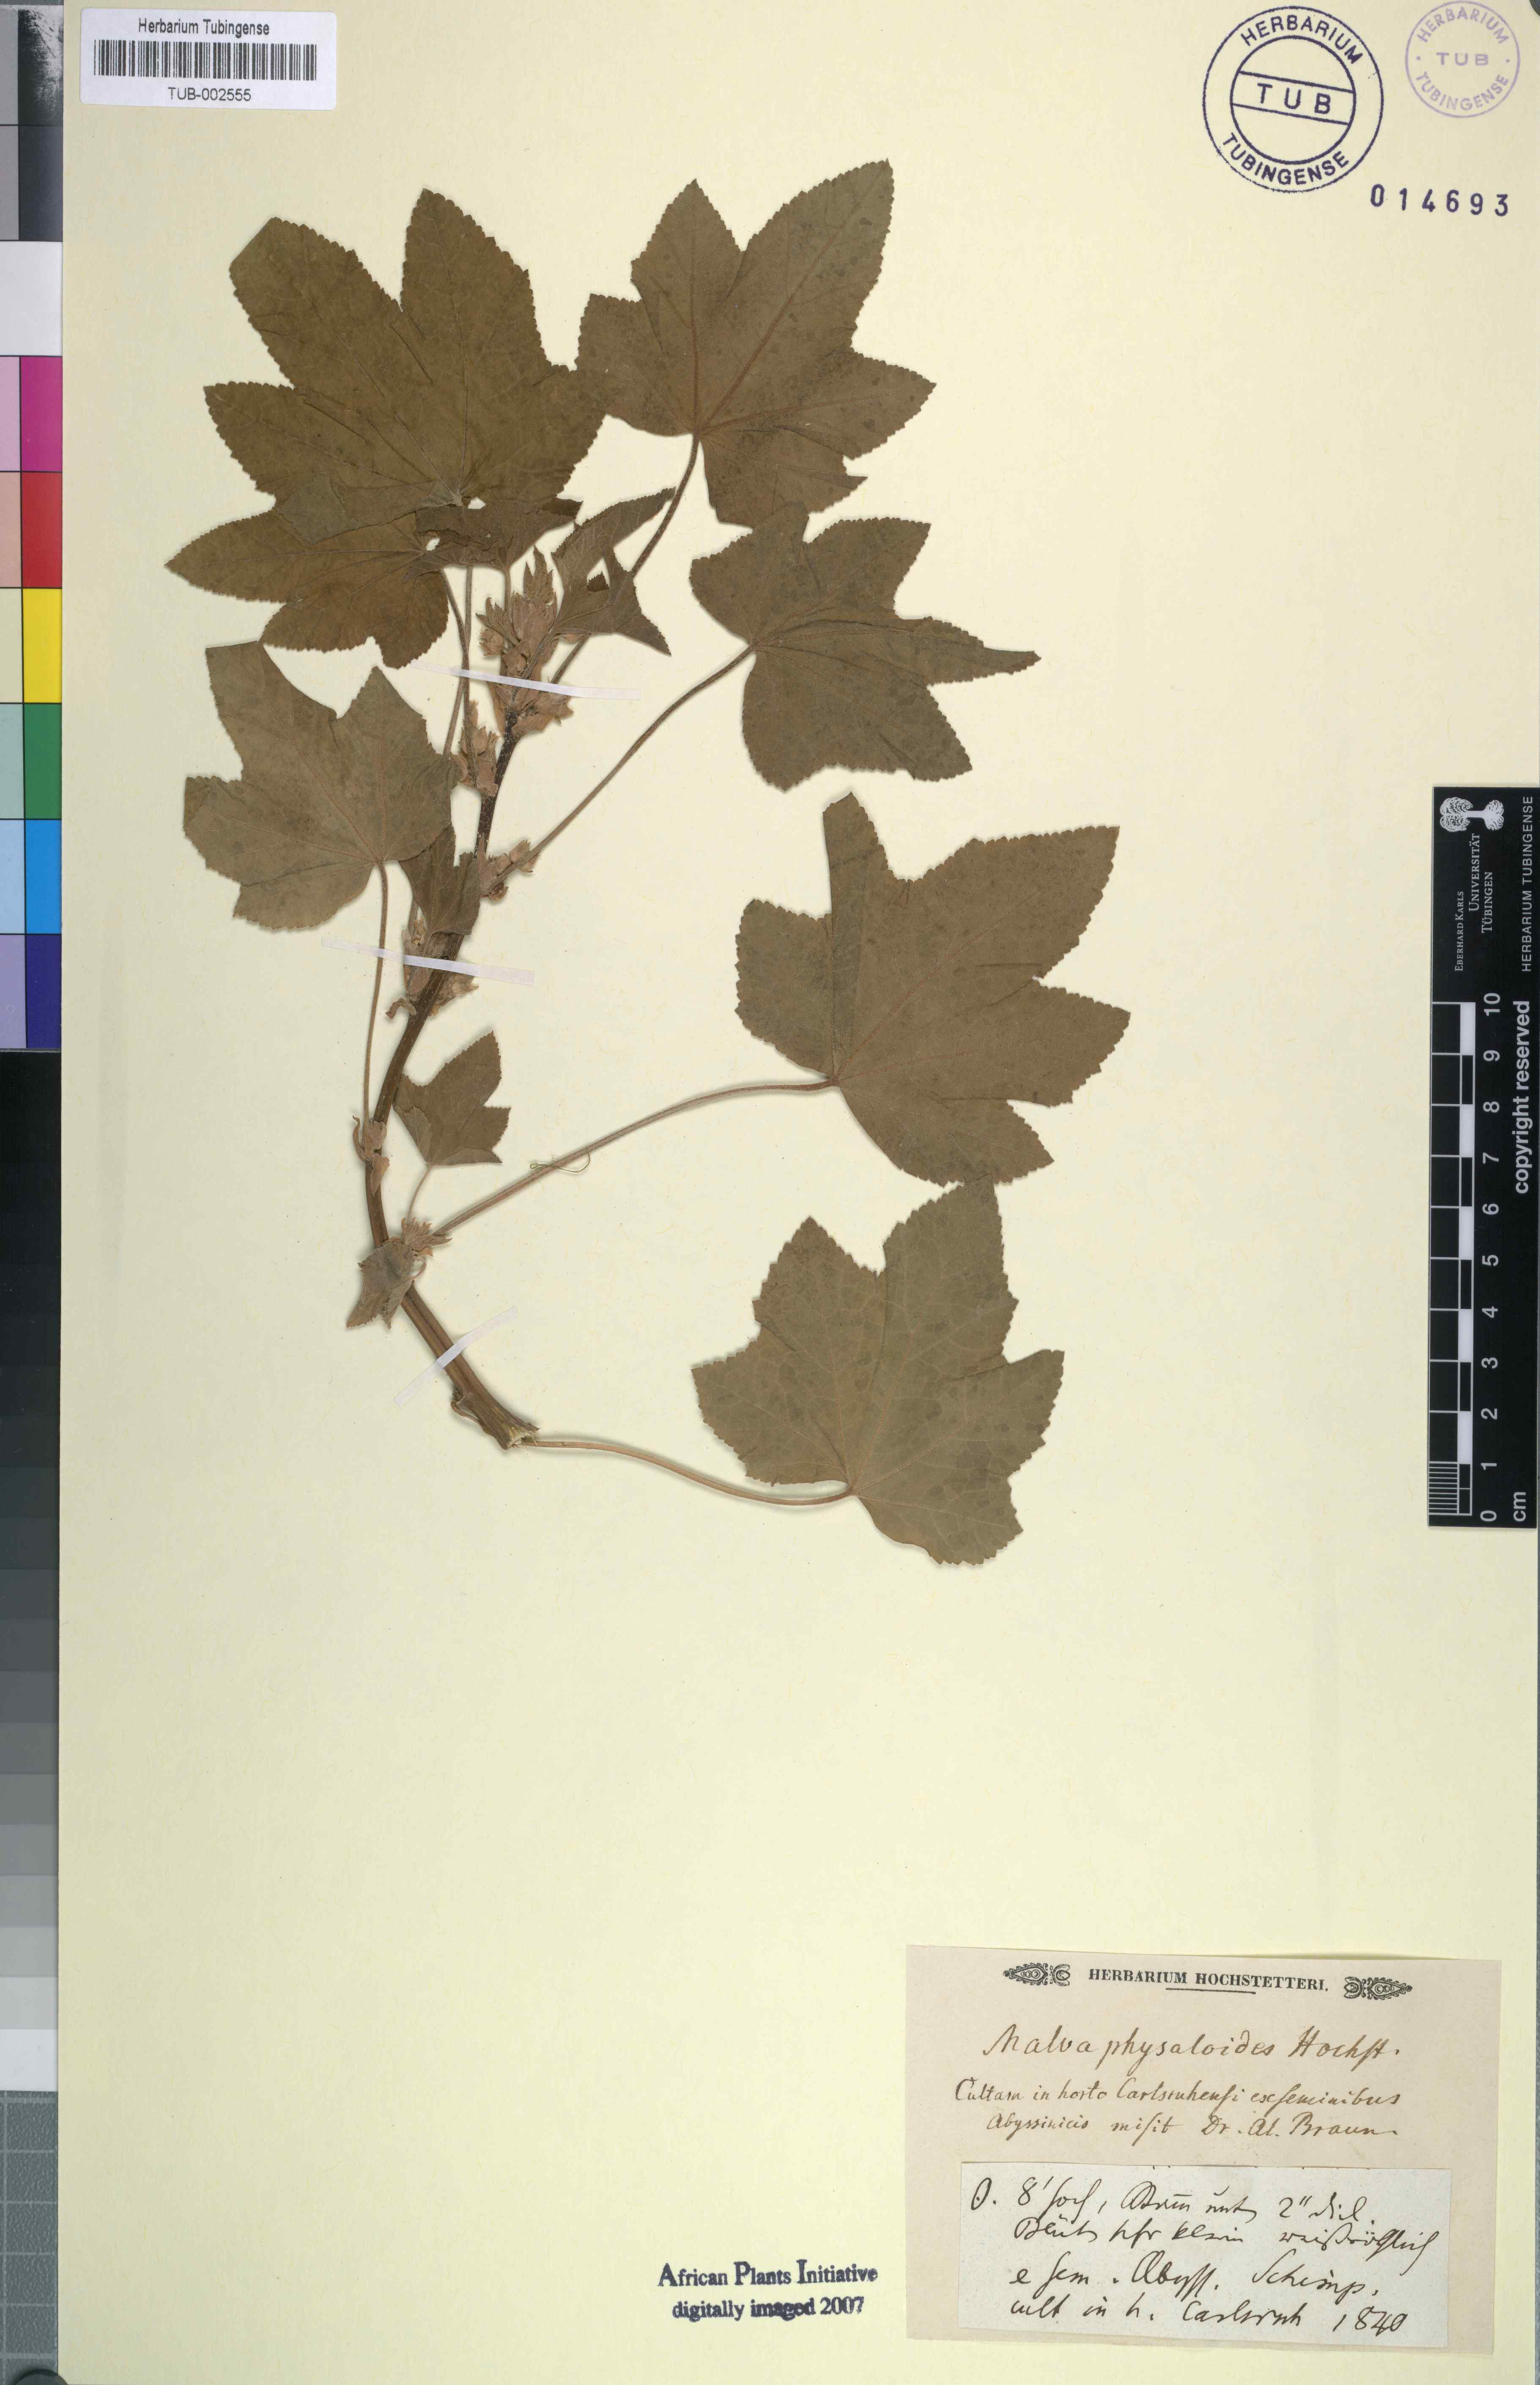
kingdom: Plantae
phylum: Tracheophyta
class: Magnoliopsida
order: Malvales
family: Malvaceae
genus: Malva
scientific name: Malva
